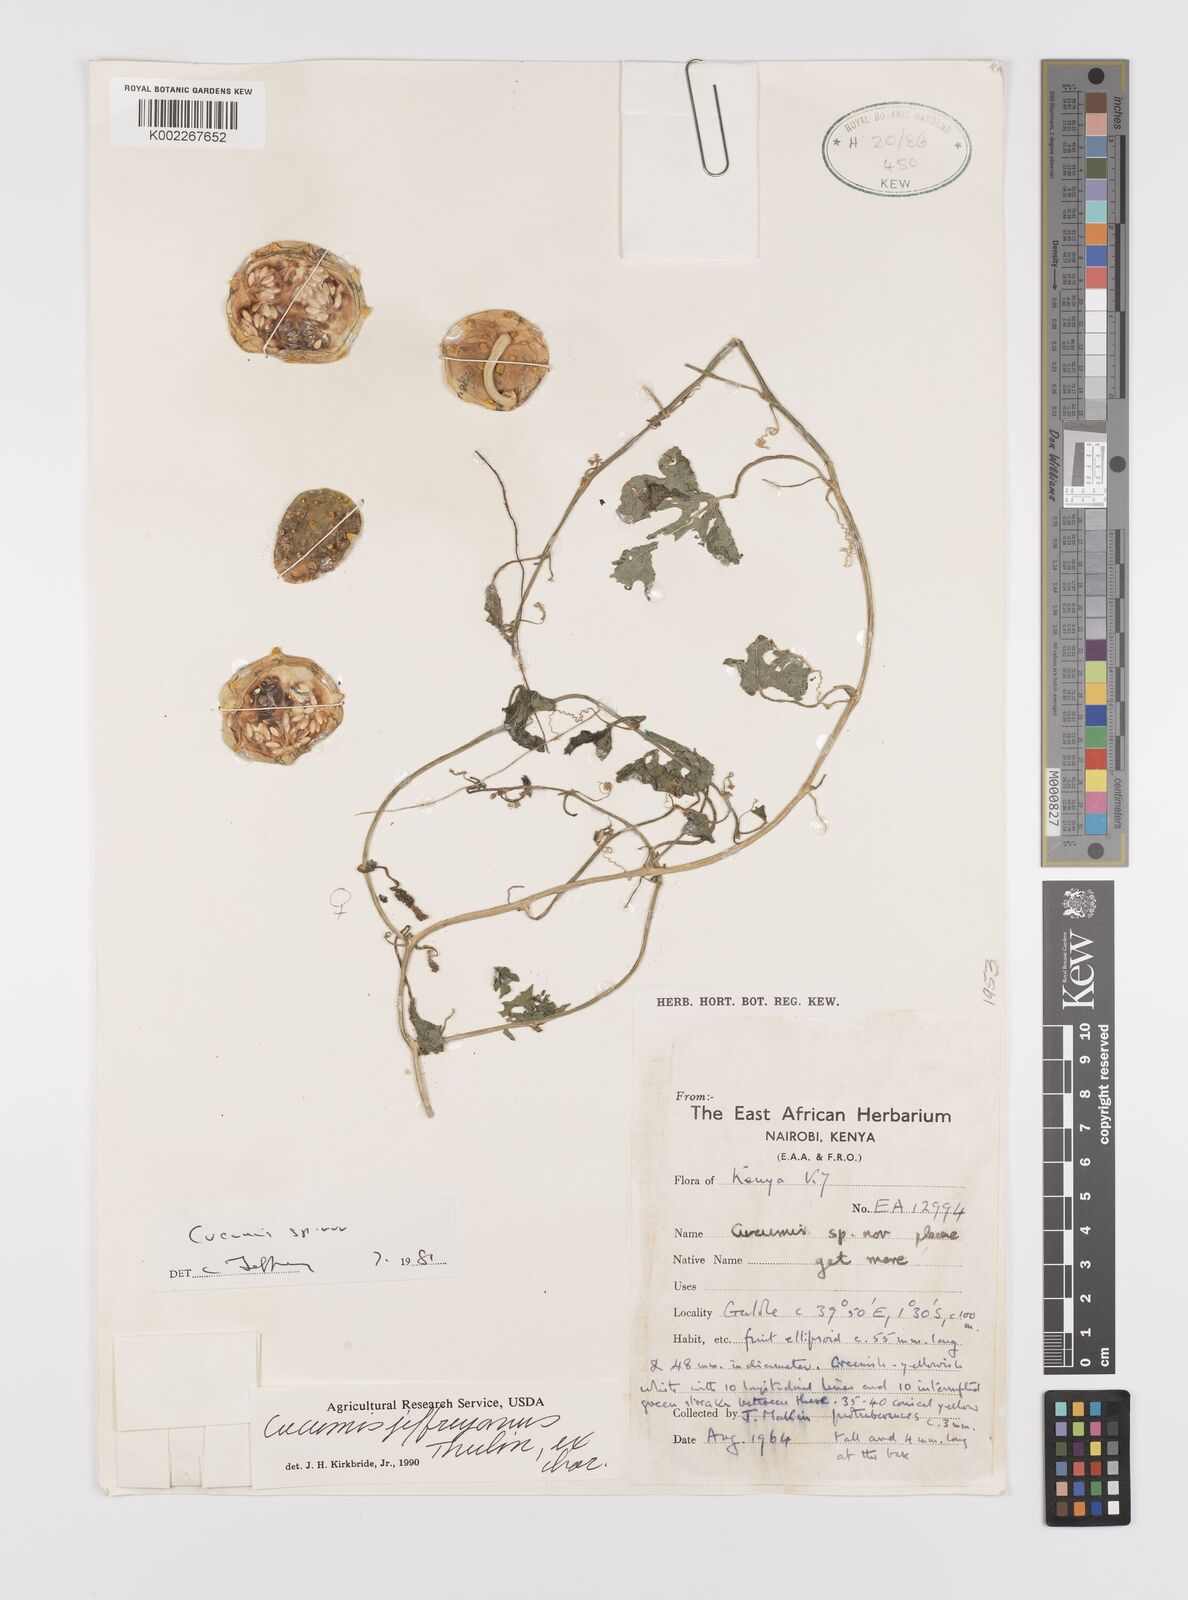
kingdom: Plantae
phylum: Tracheophyta
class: Magnoliopsida
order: Cucurbitales
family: Cucurbitaceae
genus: Cucumis
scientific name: Cucumis
